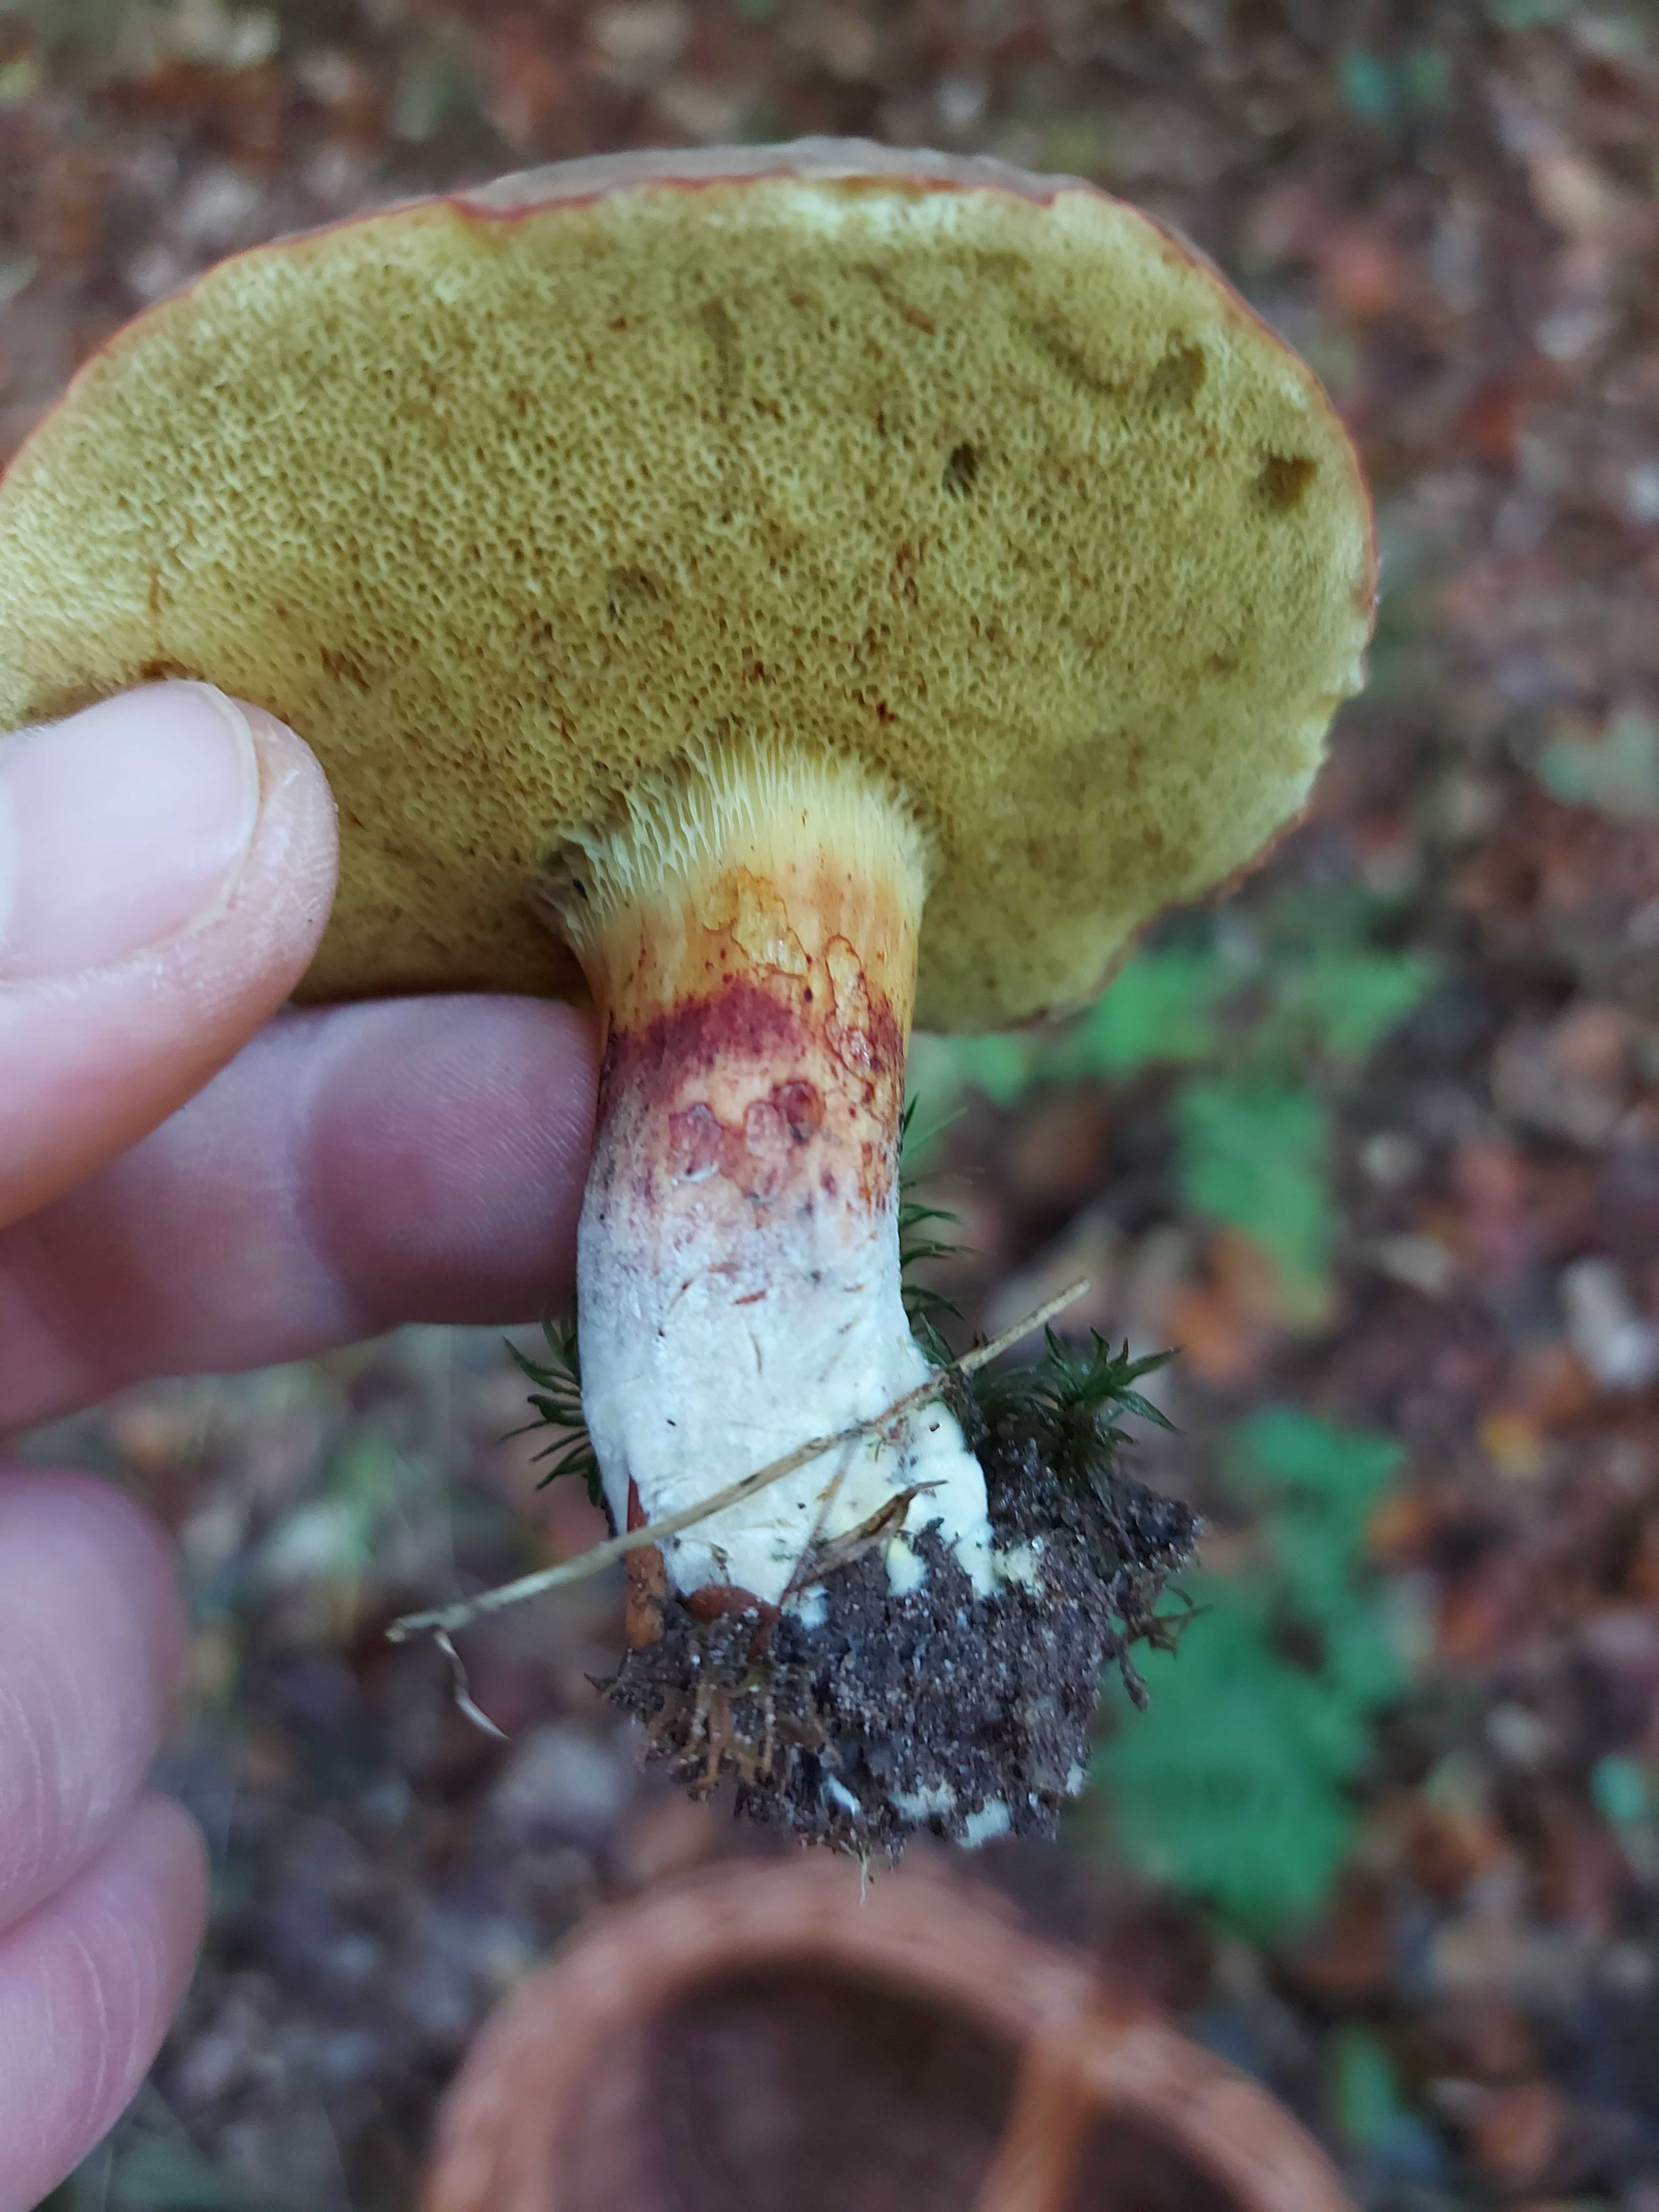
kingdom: Fungi
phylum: Basidiomycota
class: Agaricomycetes
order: Boletales
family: Boletaceae
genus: Xerocomellus
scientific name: Xerocomellus pruinatus
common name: dugget rørhat
